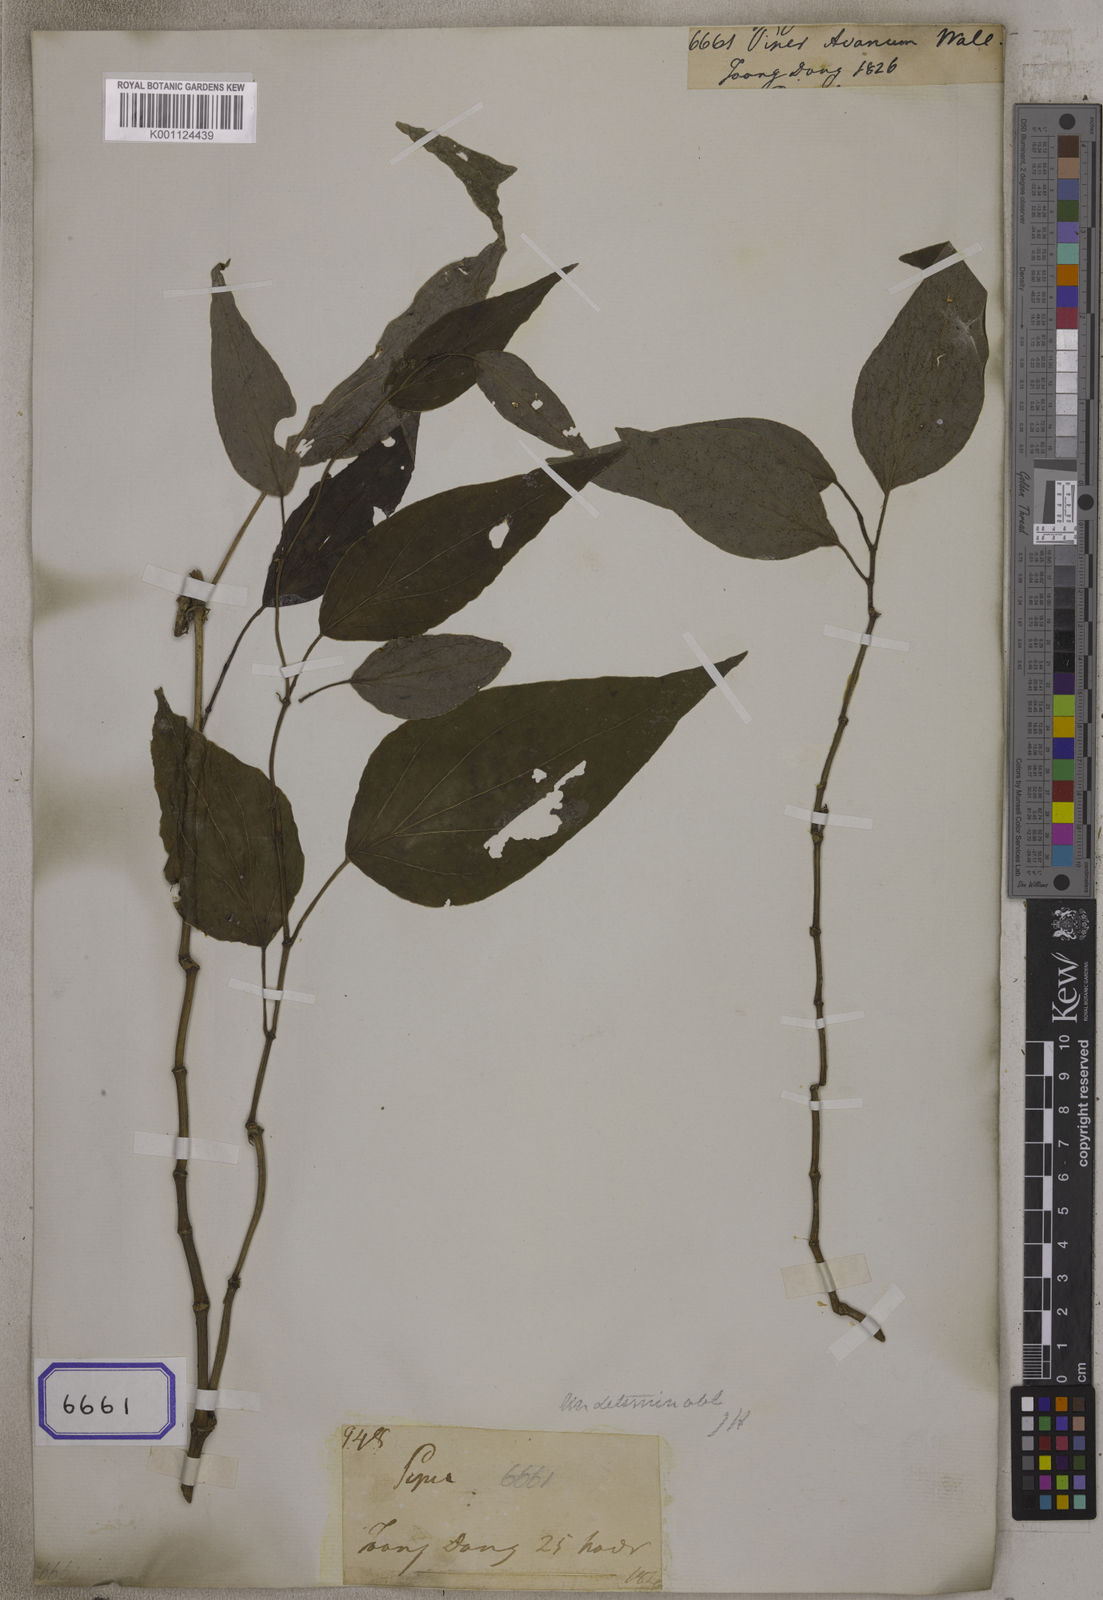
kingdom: Plantae
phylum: Tracheophyta
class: Magnoliopsida
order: Piperales
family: Piperaceae
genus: Piper
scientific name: Piper avanum
